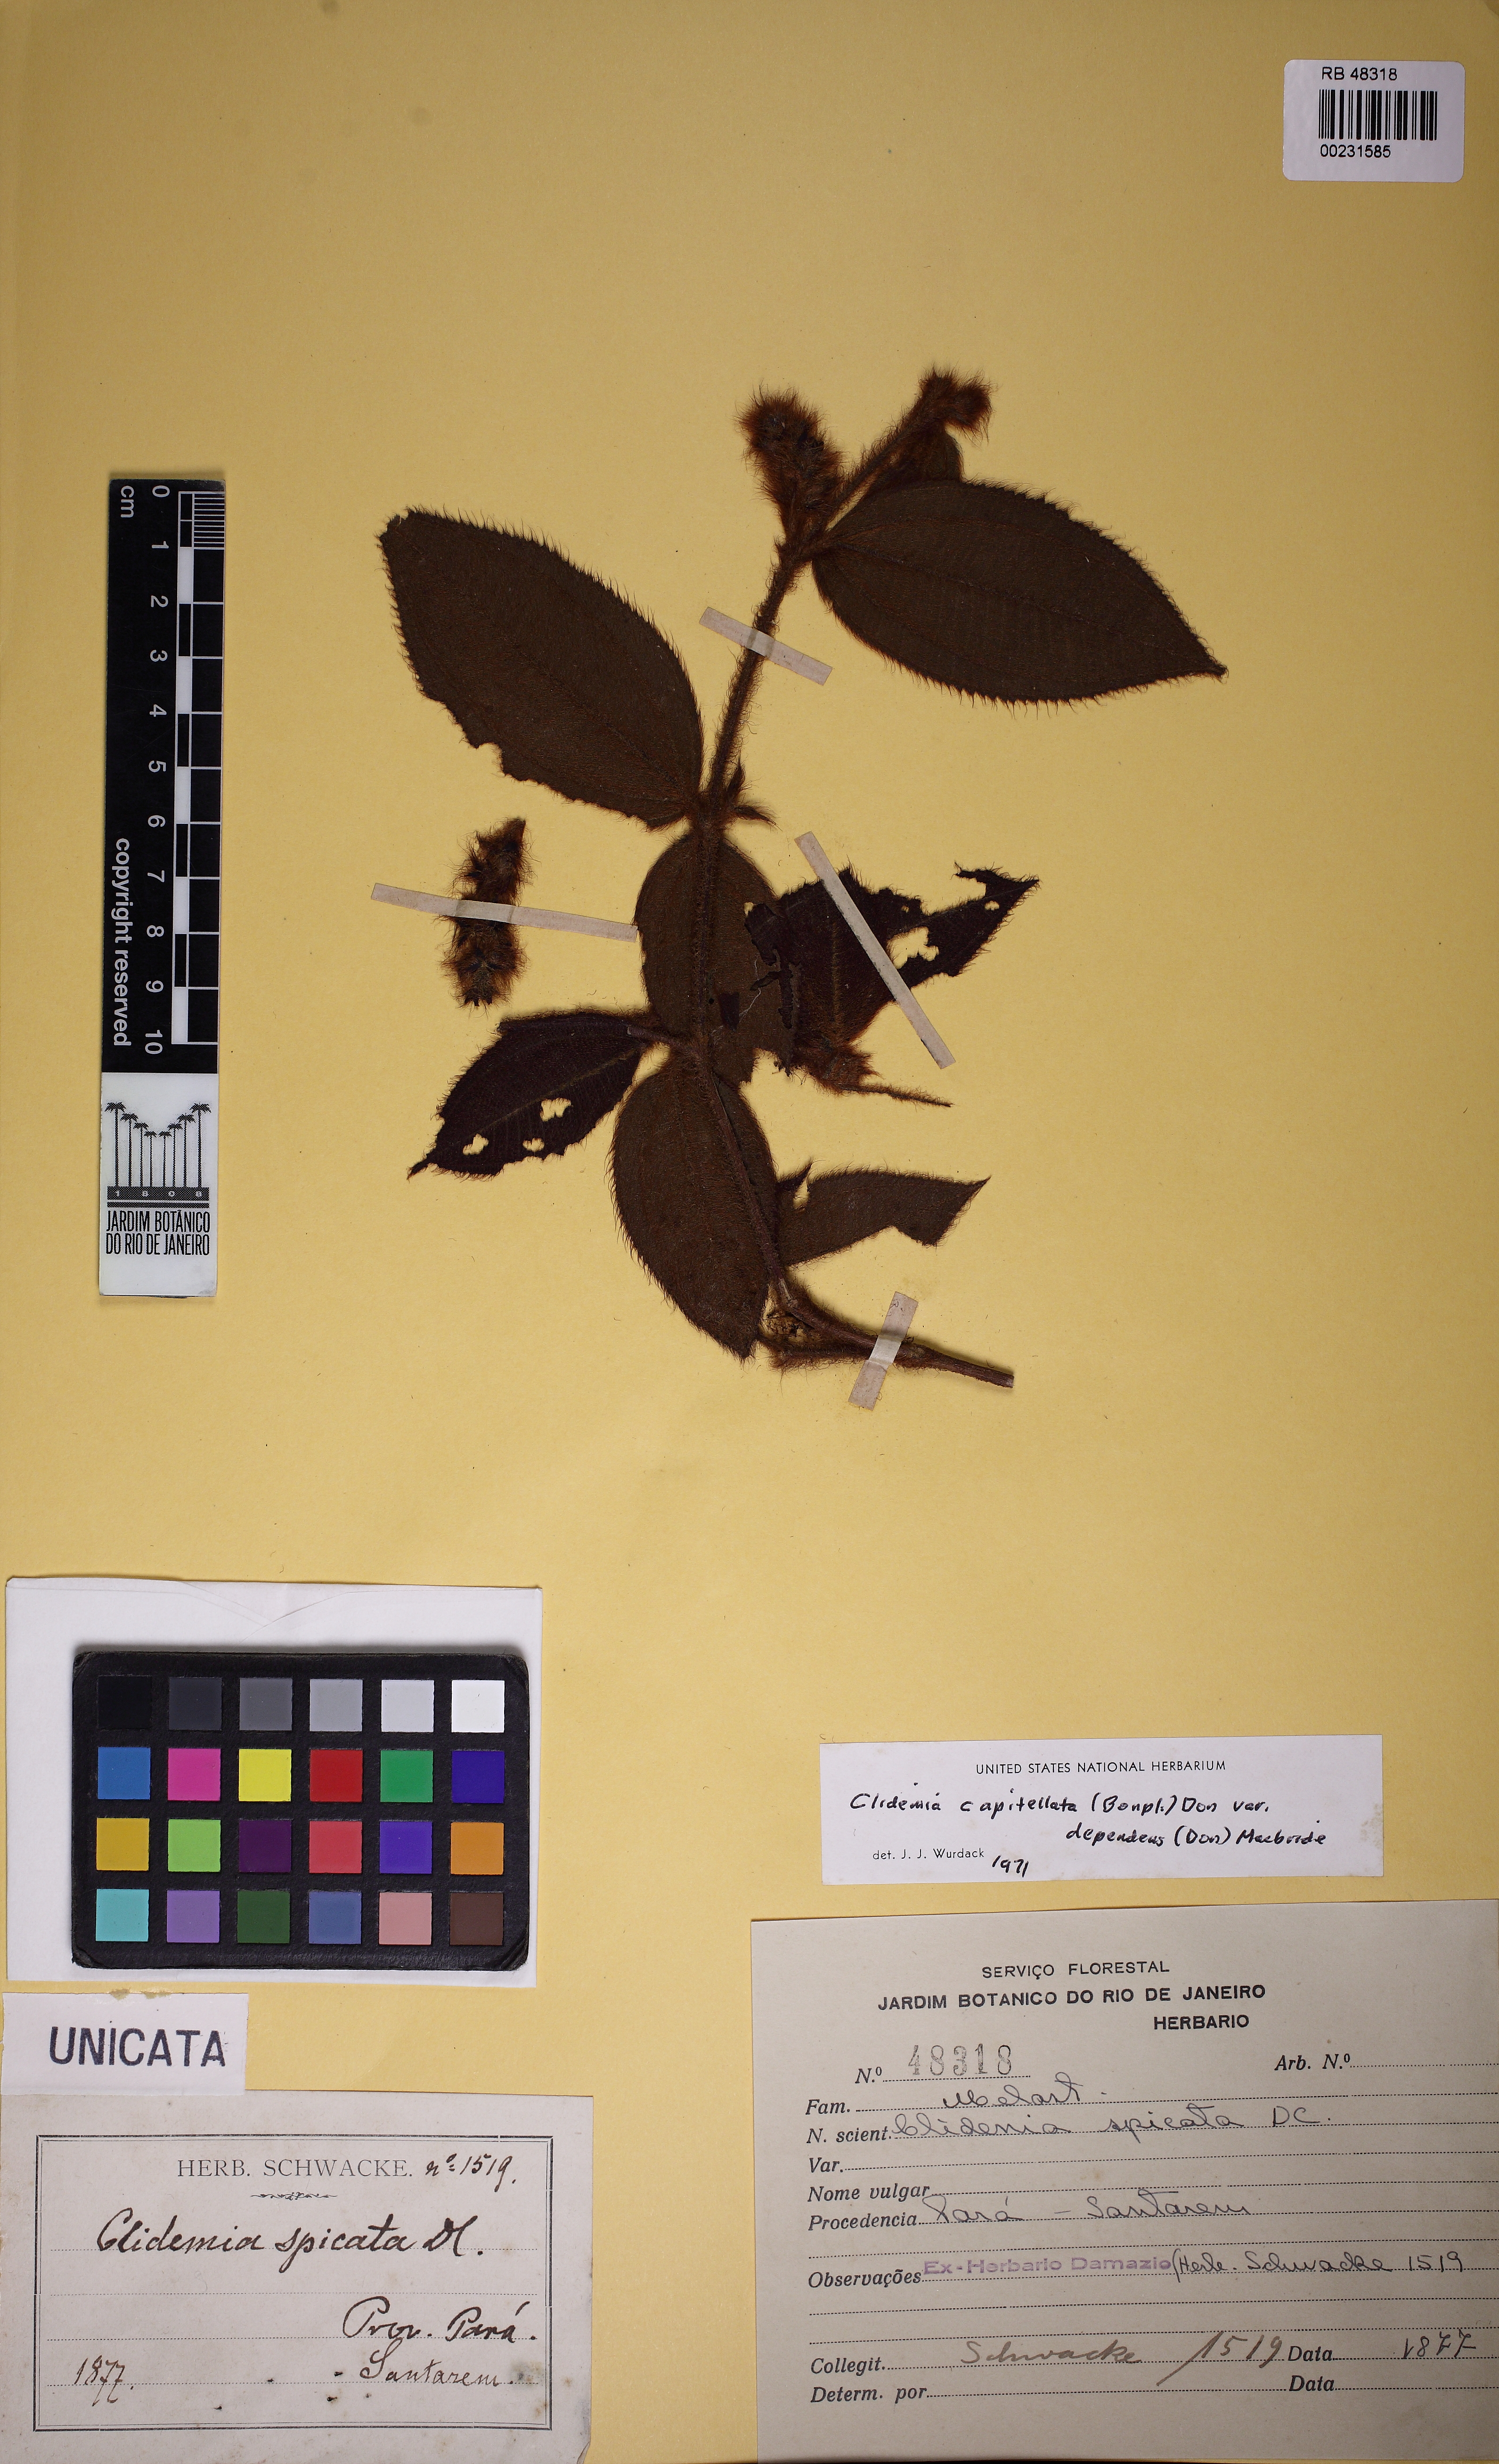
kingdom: Plantae
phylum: Tracheophyta
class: Magnoliopsida
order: Myrtales
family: Melastomataceae
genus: Miconia
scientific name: Miconia dependens
